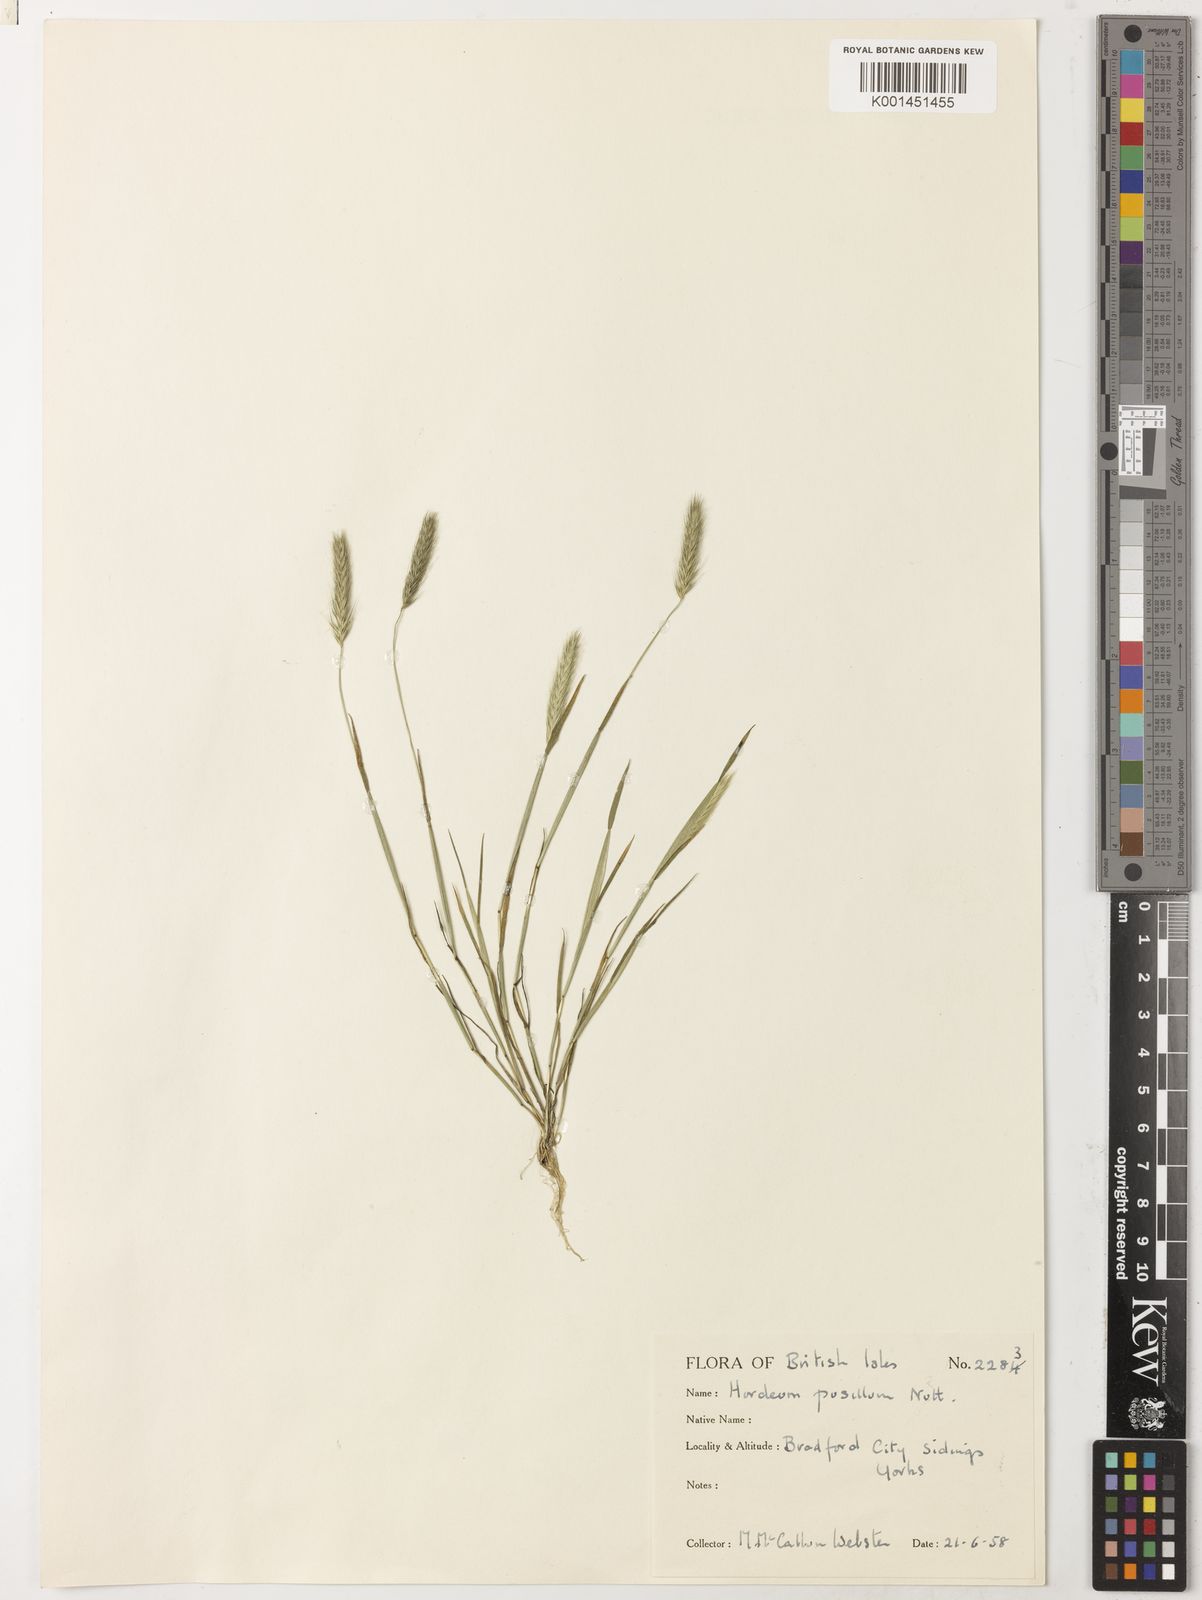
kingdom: Plantae
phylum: Tracheophyta
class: Liliopsida
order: Poales
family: Poaceae
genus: Hordeum
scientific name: Hordeum pusillum
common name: Little barley
